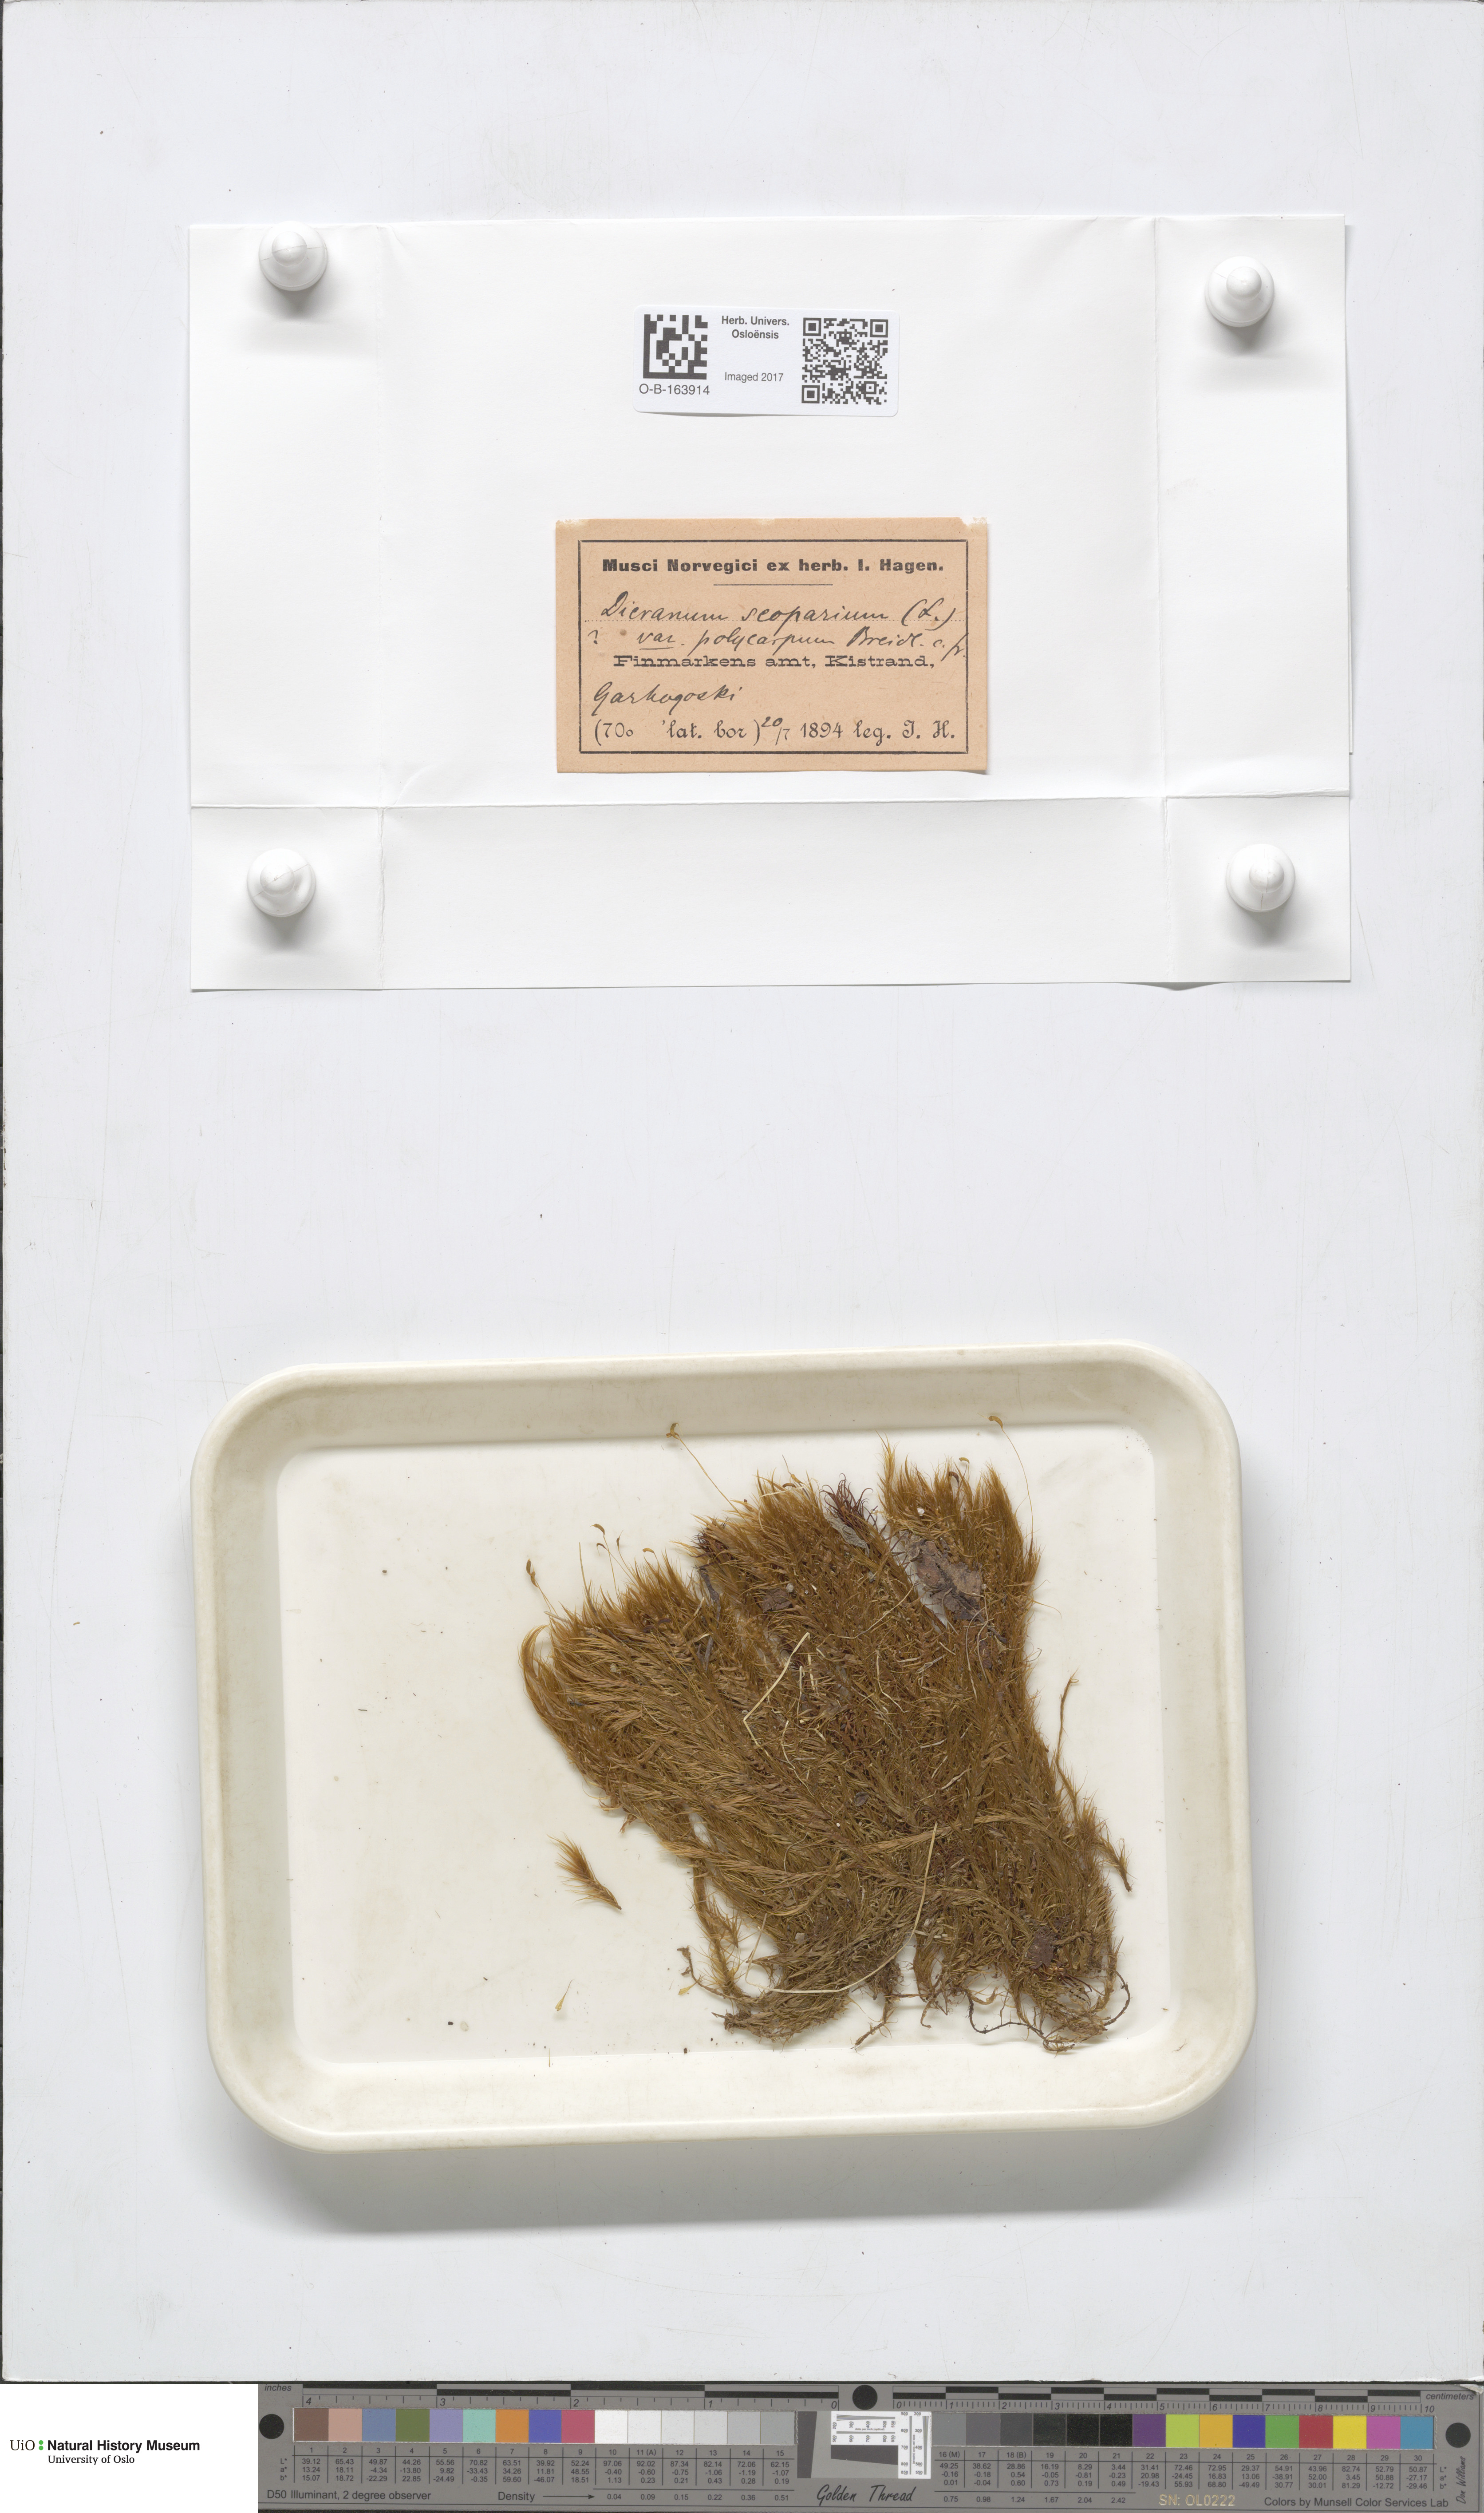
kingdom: Plantae
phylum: Bryophyta
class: Bryopsida
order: Dicranales
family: Dicranaceae
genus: Dicranum
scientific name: Dicranum scoparium
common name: Broom fork-moss
